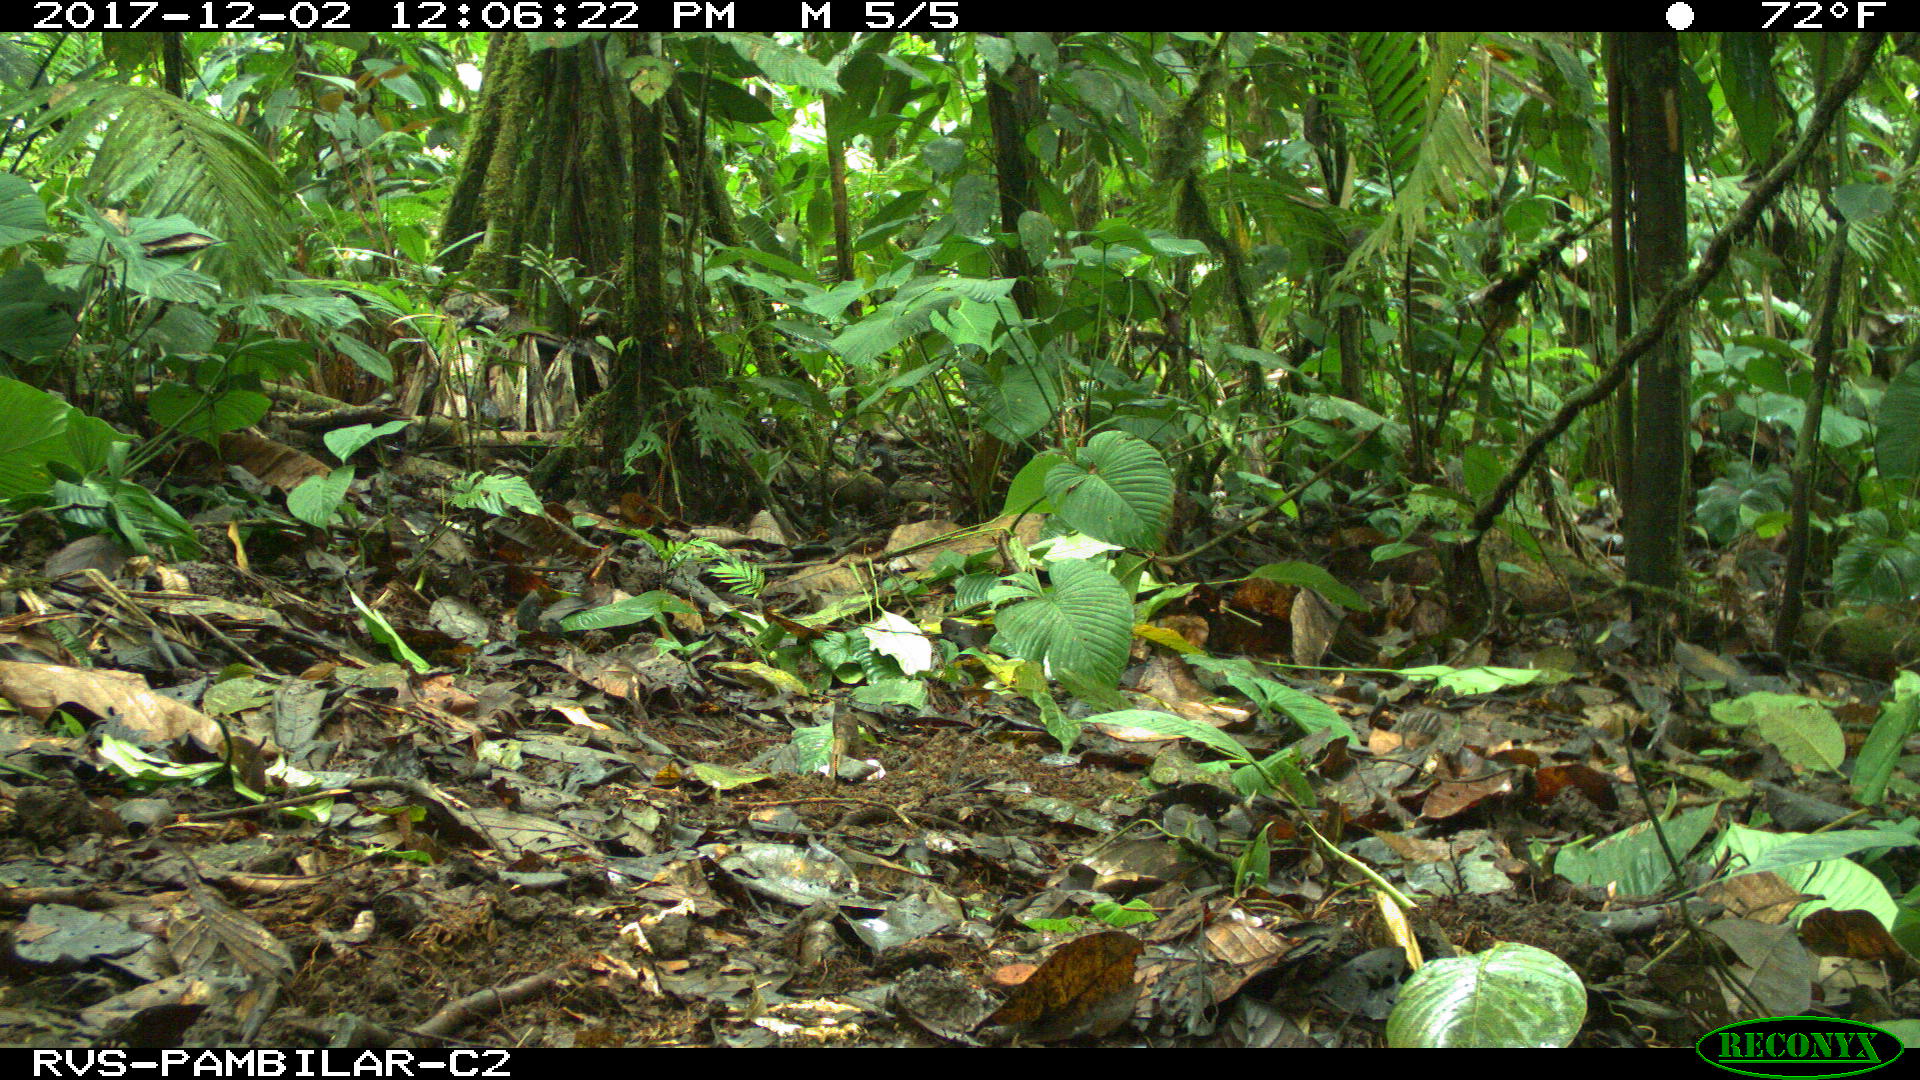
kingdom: Animalia
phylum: Chordata
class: Mammalia
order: Rodentia
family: Dasyproctidae
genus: Dasyprocta
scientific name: Dasyprocta punctata
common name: Central american agouti
